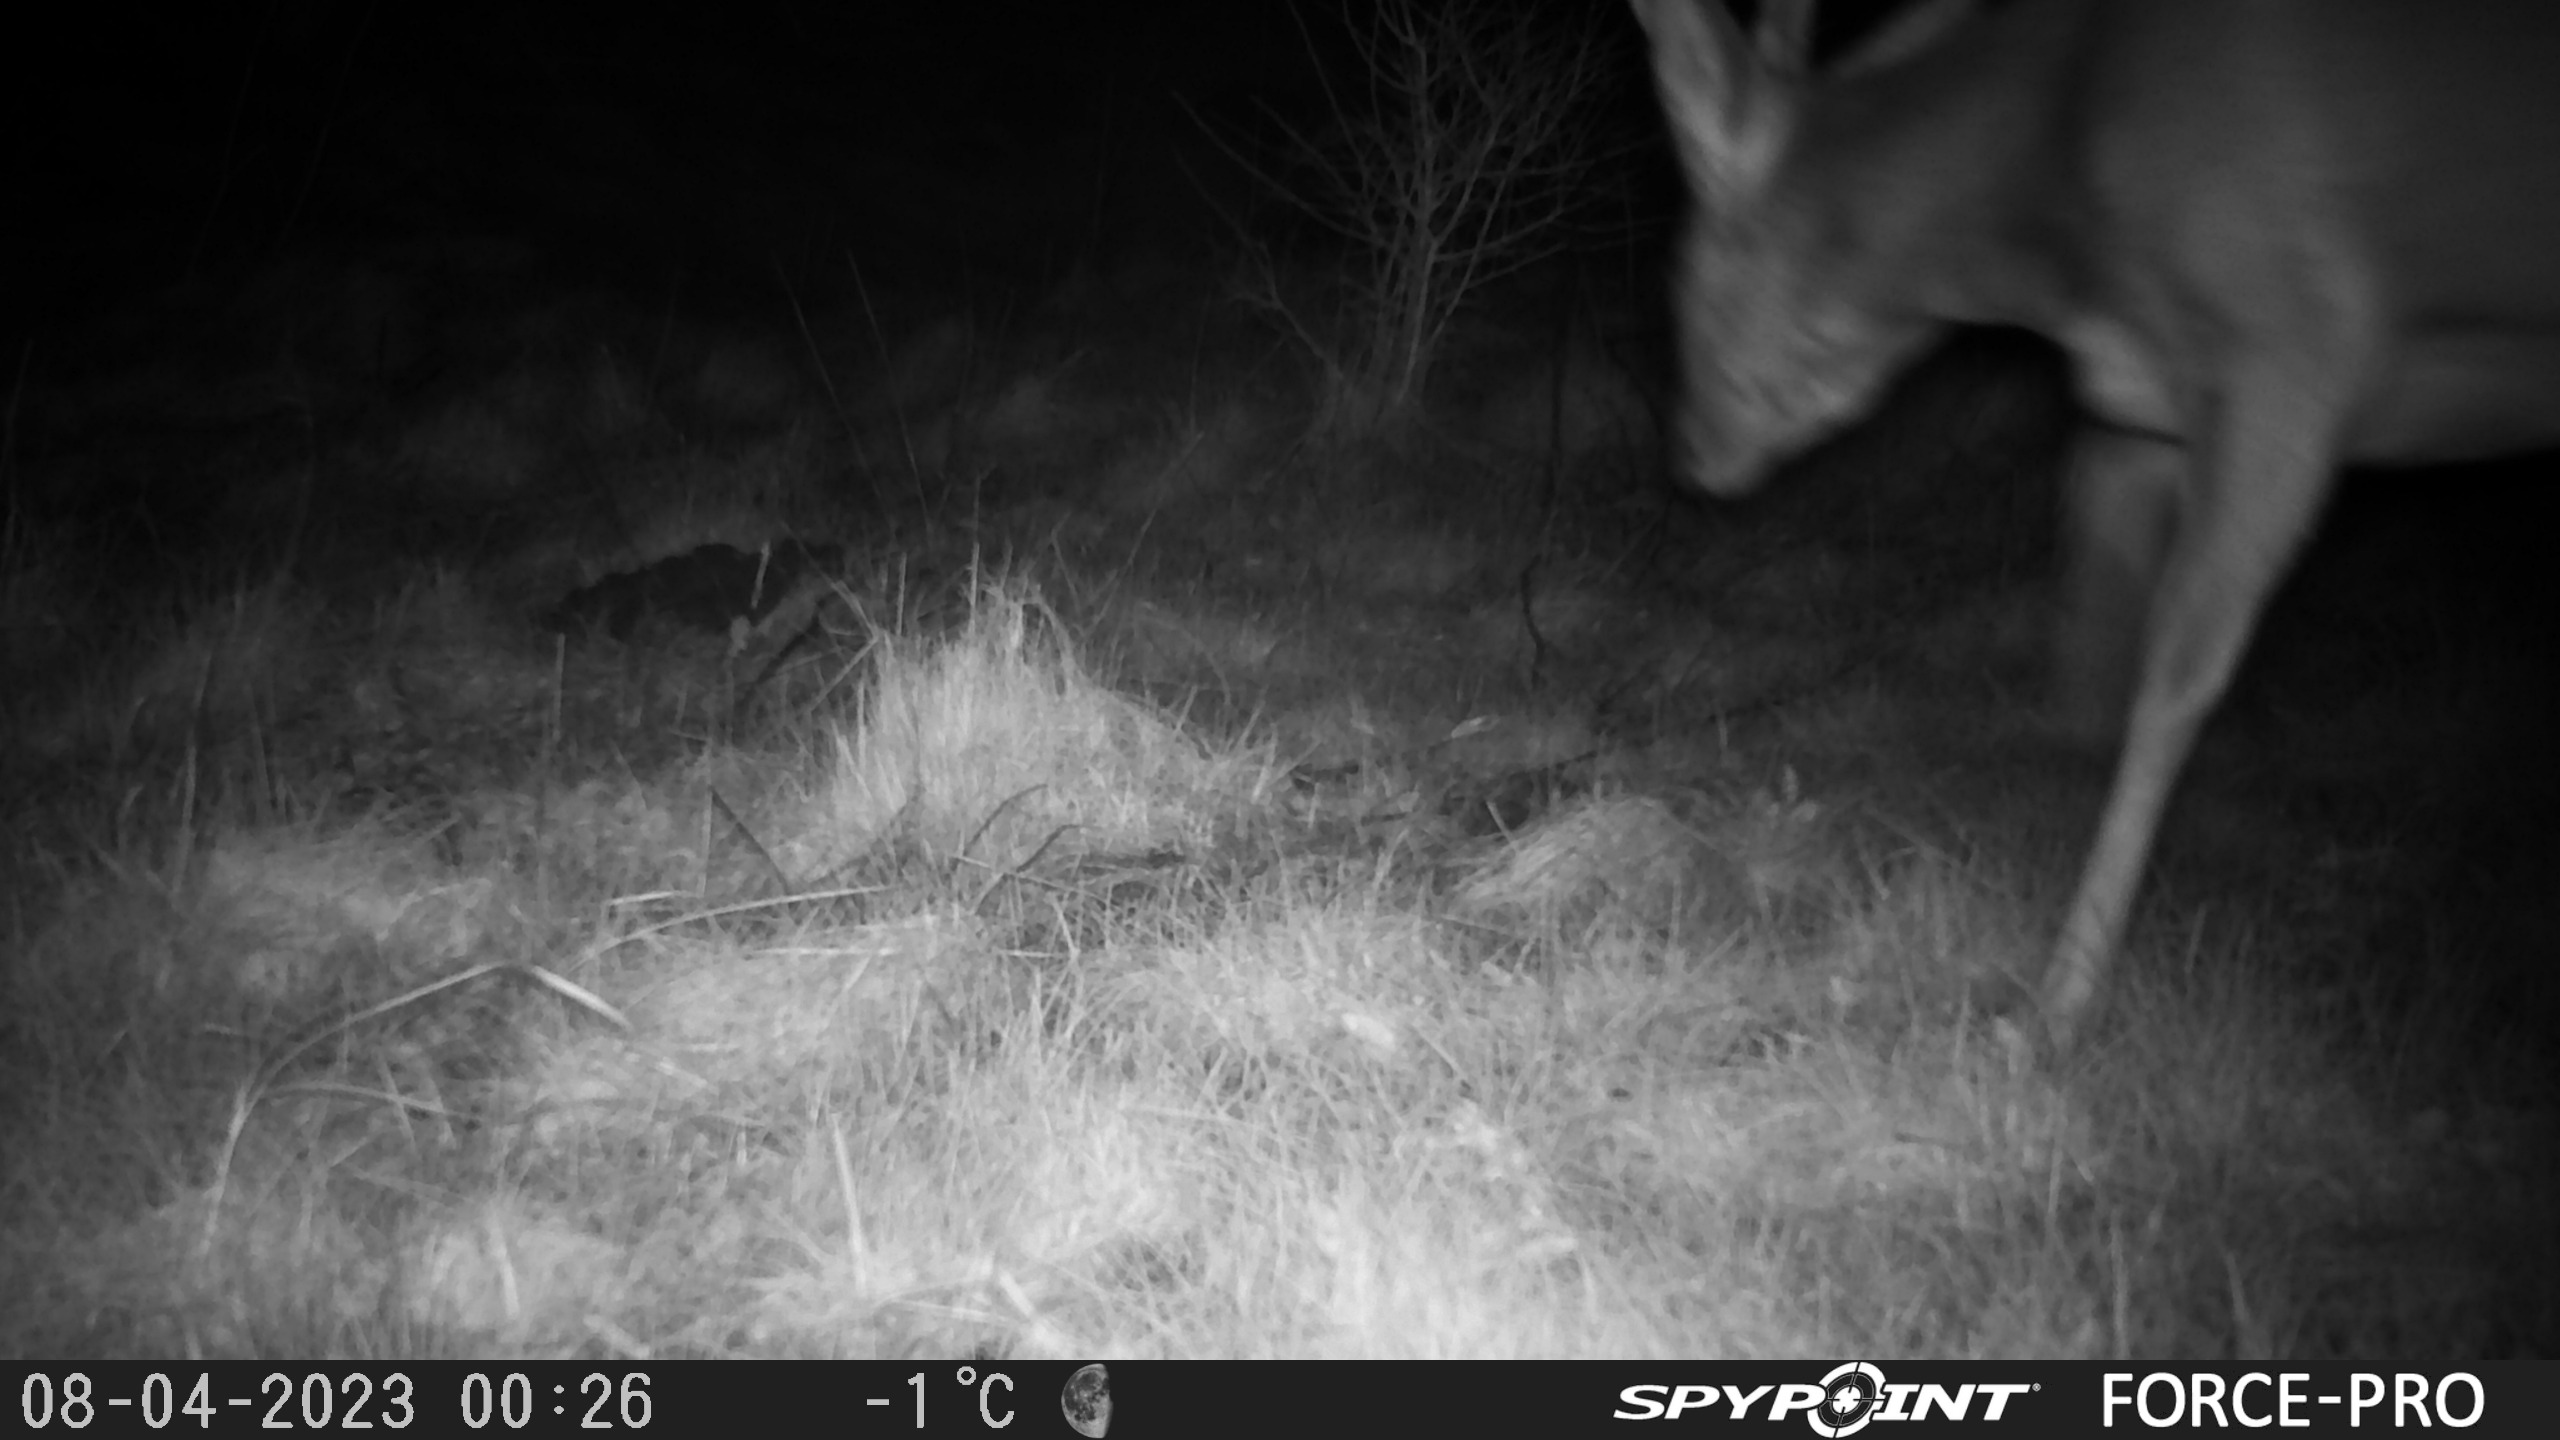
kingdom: Animalia
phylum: Chordata
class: Mammalia
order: Artiodactyla
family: Cervidae
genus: Capreolus
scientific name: Capreolus capreolus
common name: Rådyr
